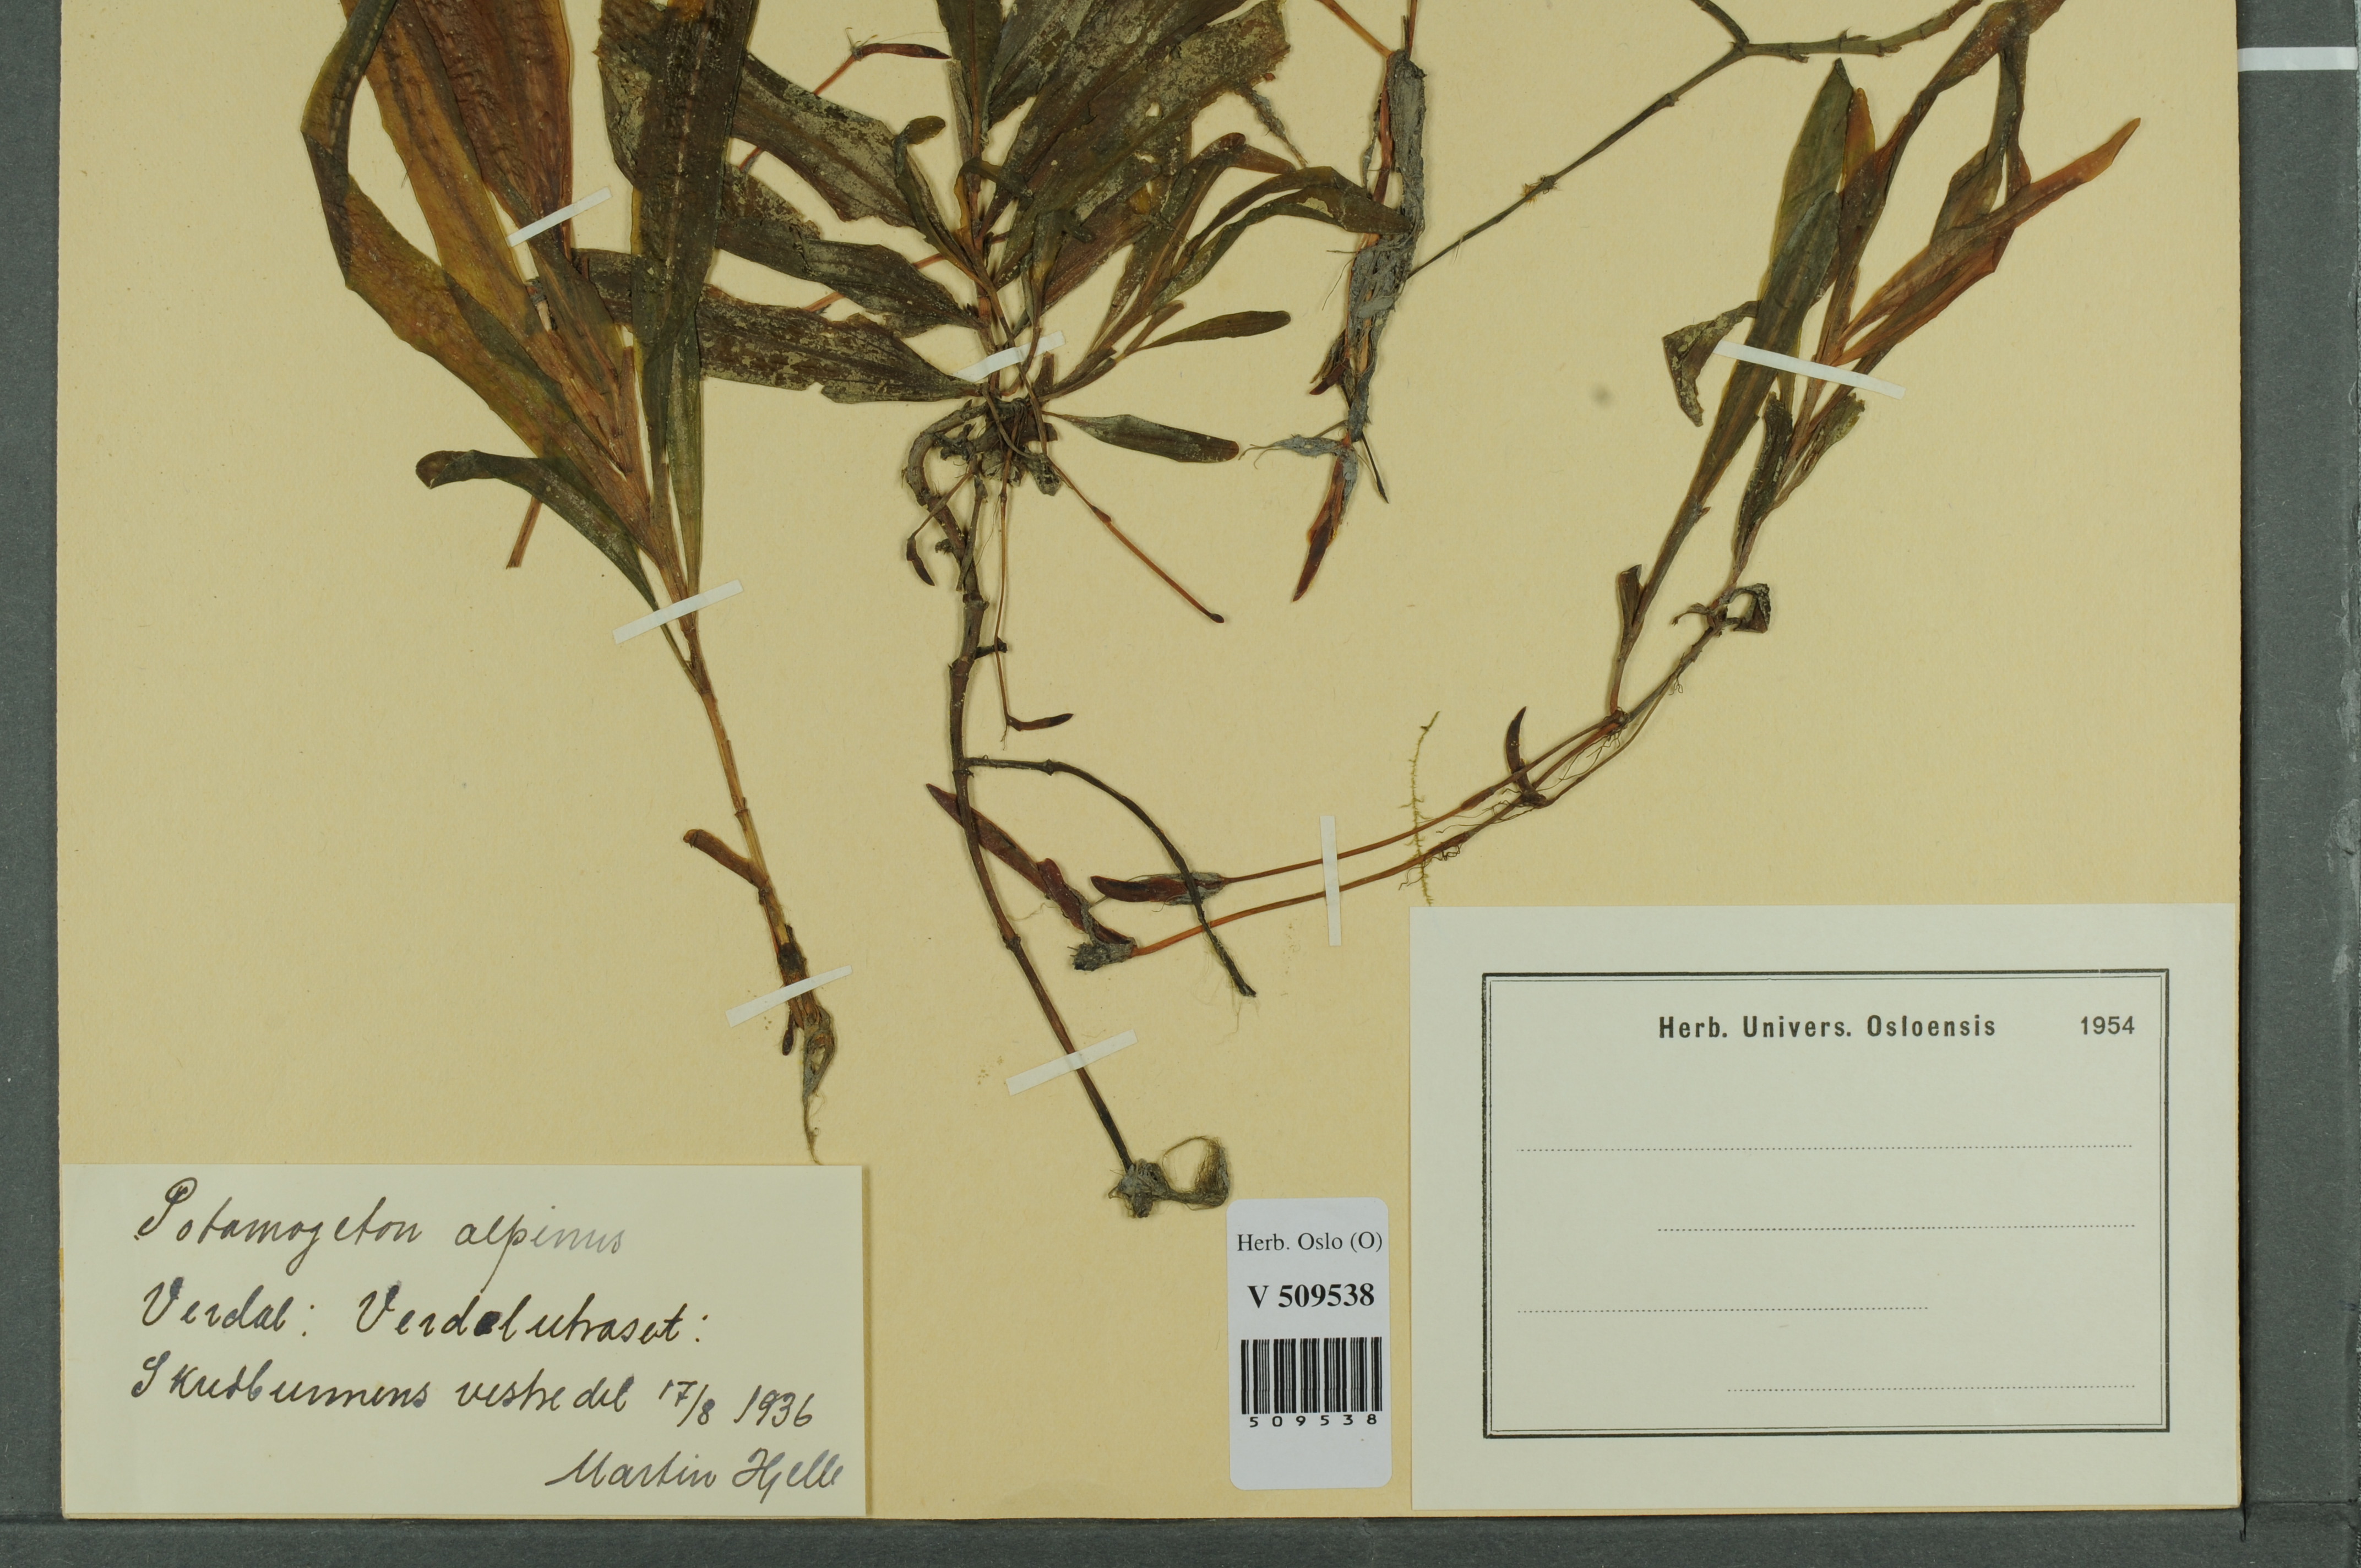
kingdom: Plantae
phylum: Tracheophyta
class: Liliopsida
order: Alismatales
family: Potamogetonaceae
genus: Potamogeton
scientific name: Potamogeton alpinus
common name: Red pondweed
